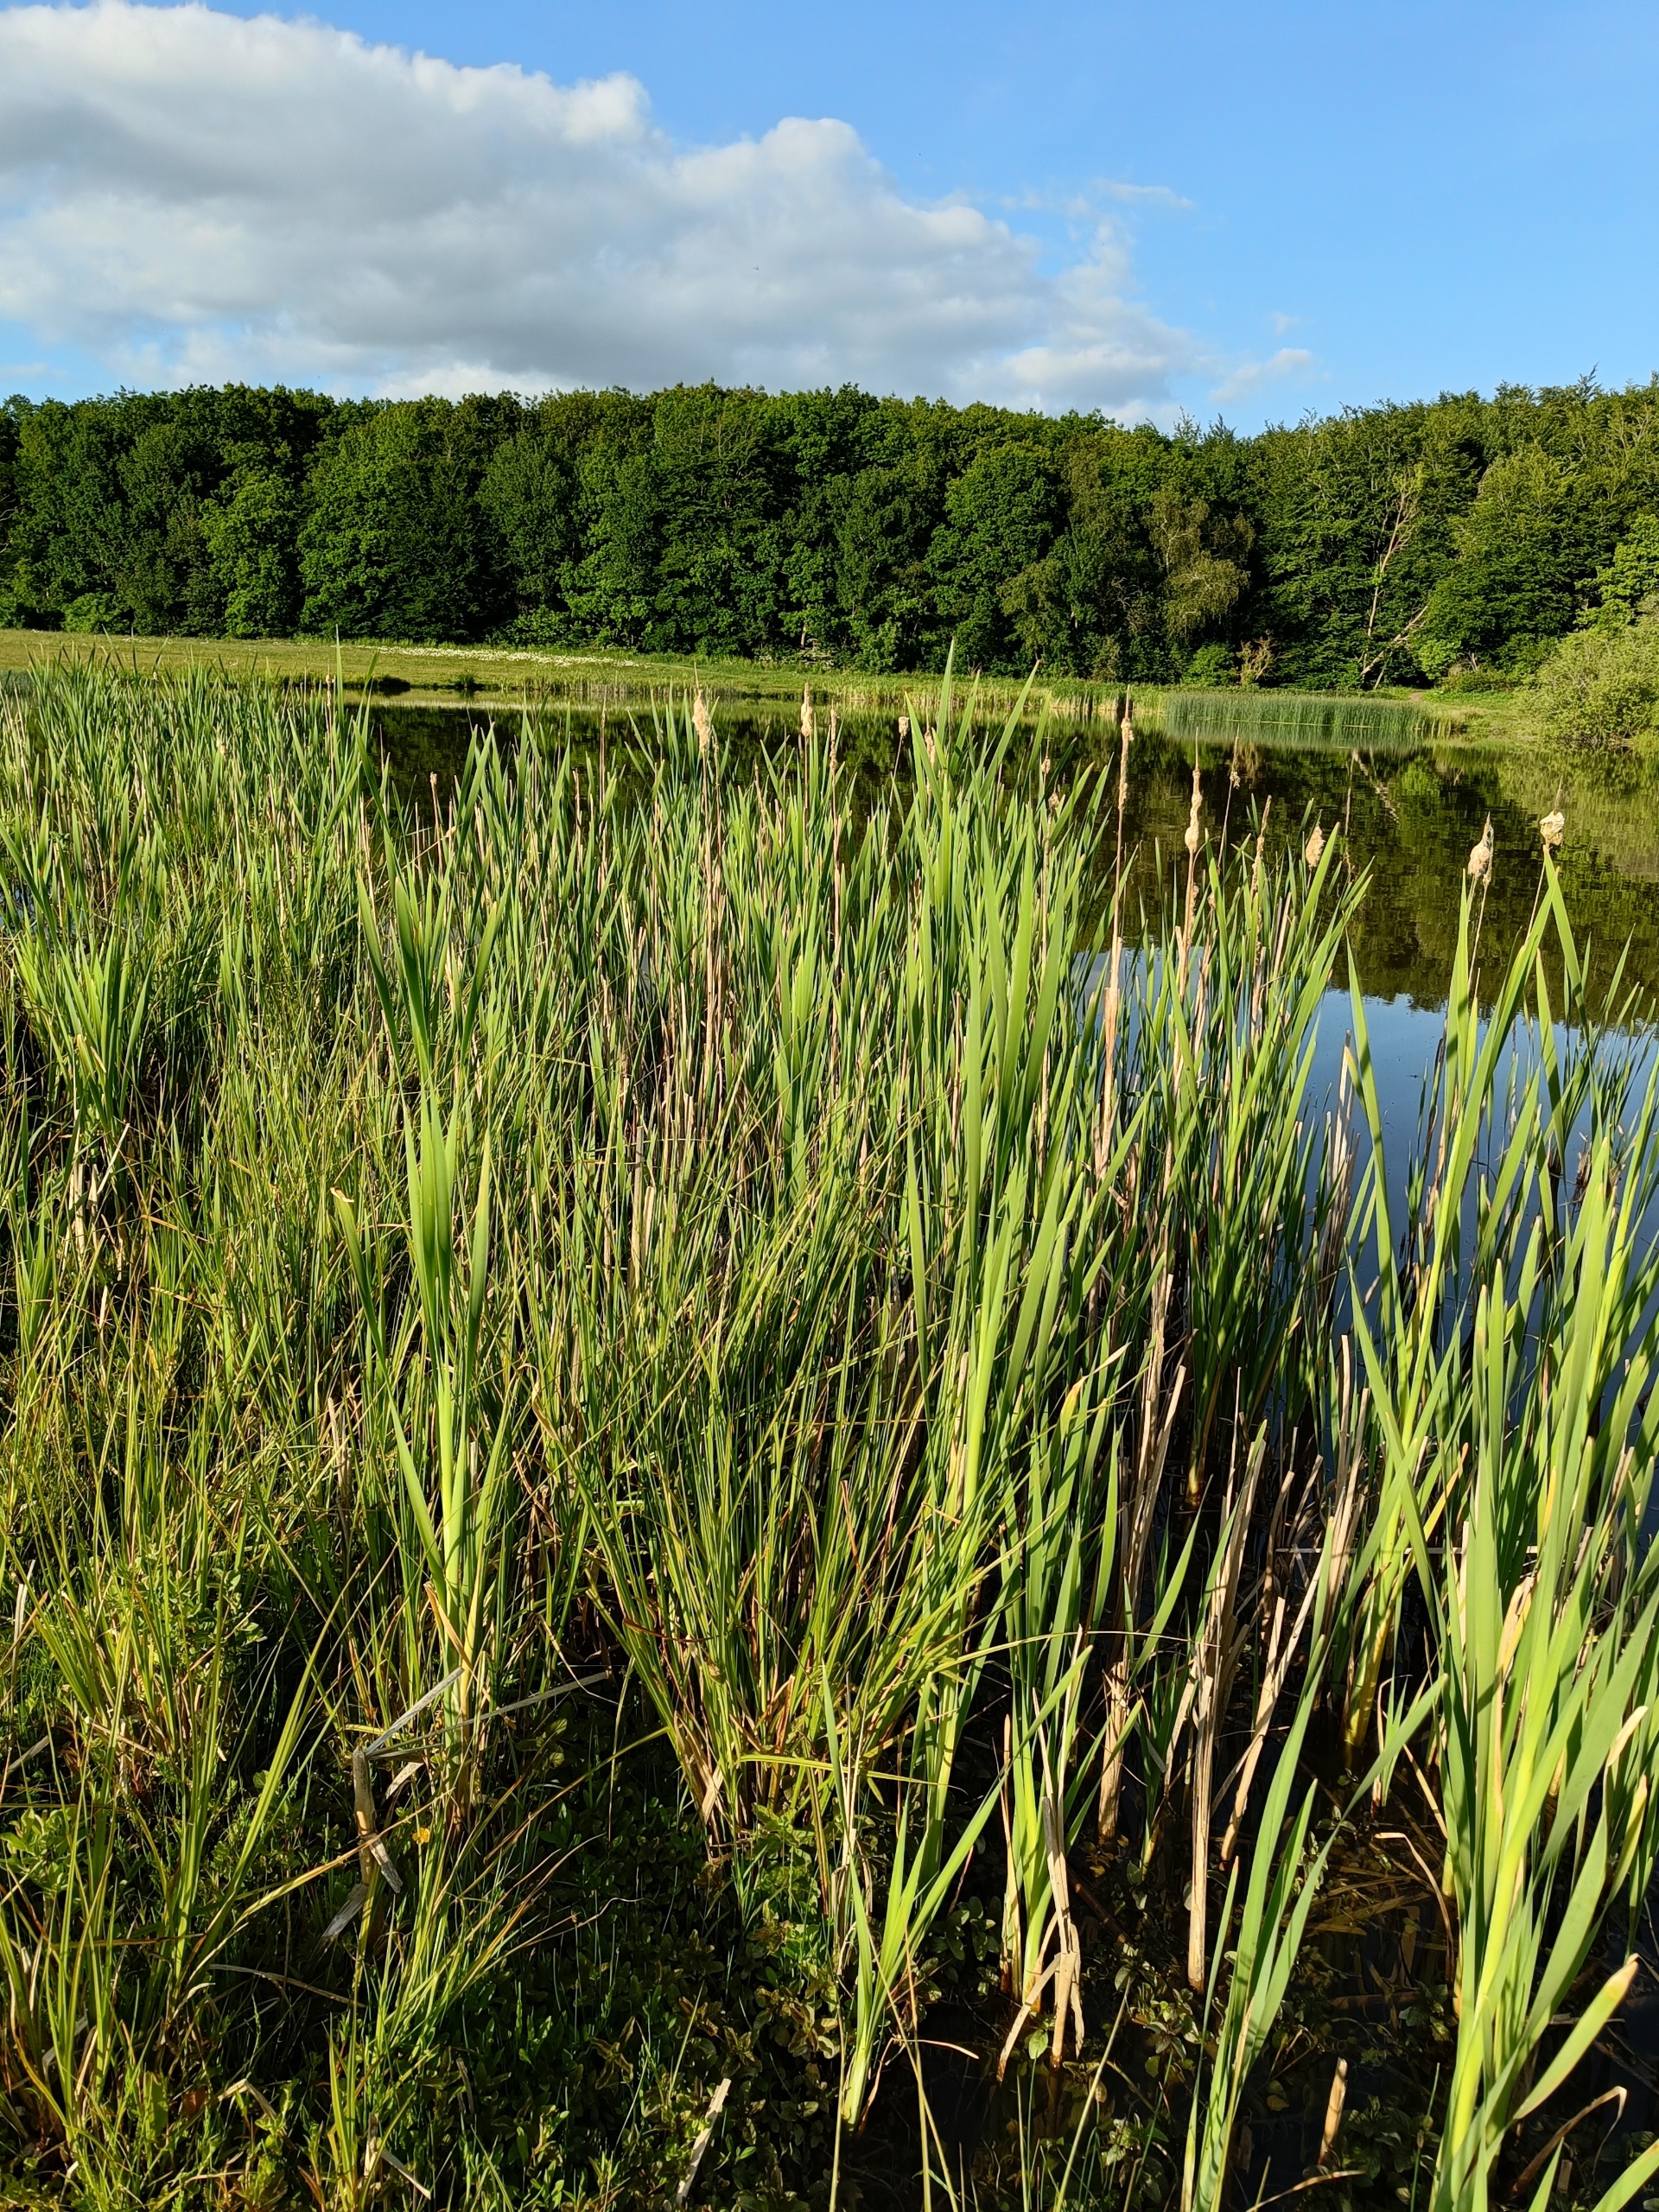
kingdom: Plantae
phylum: Tracheophyta
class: Liliopsida
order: Poales
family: Typhaceae
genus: Typha
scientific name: Typha latifolia
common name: Bredbladet dunhammer
